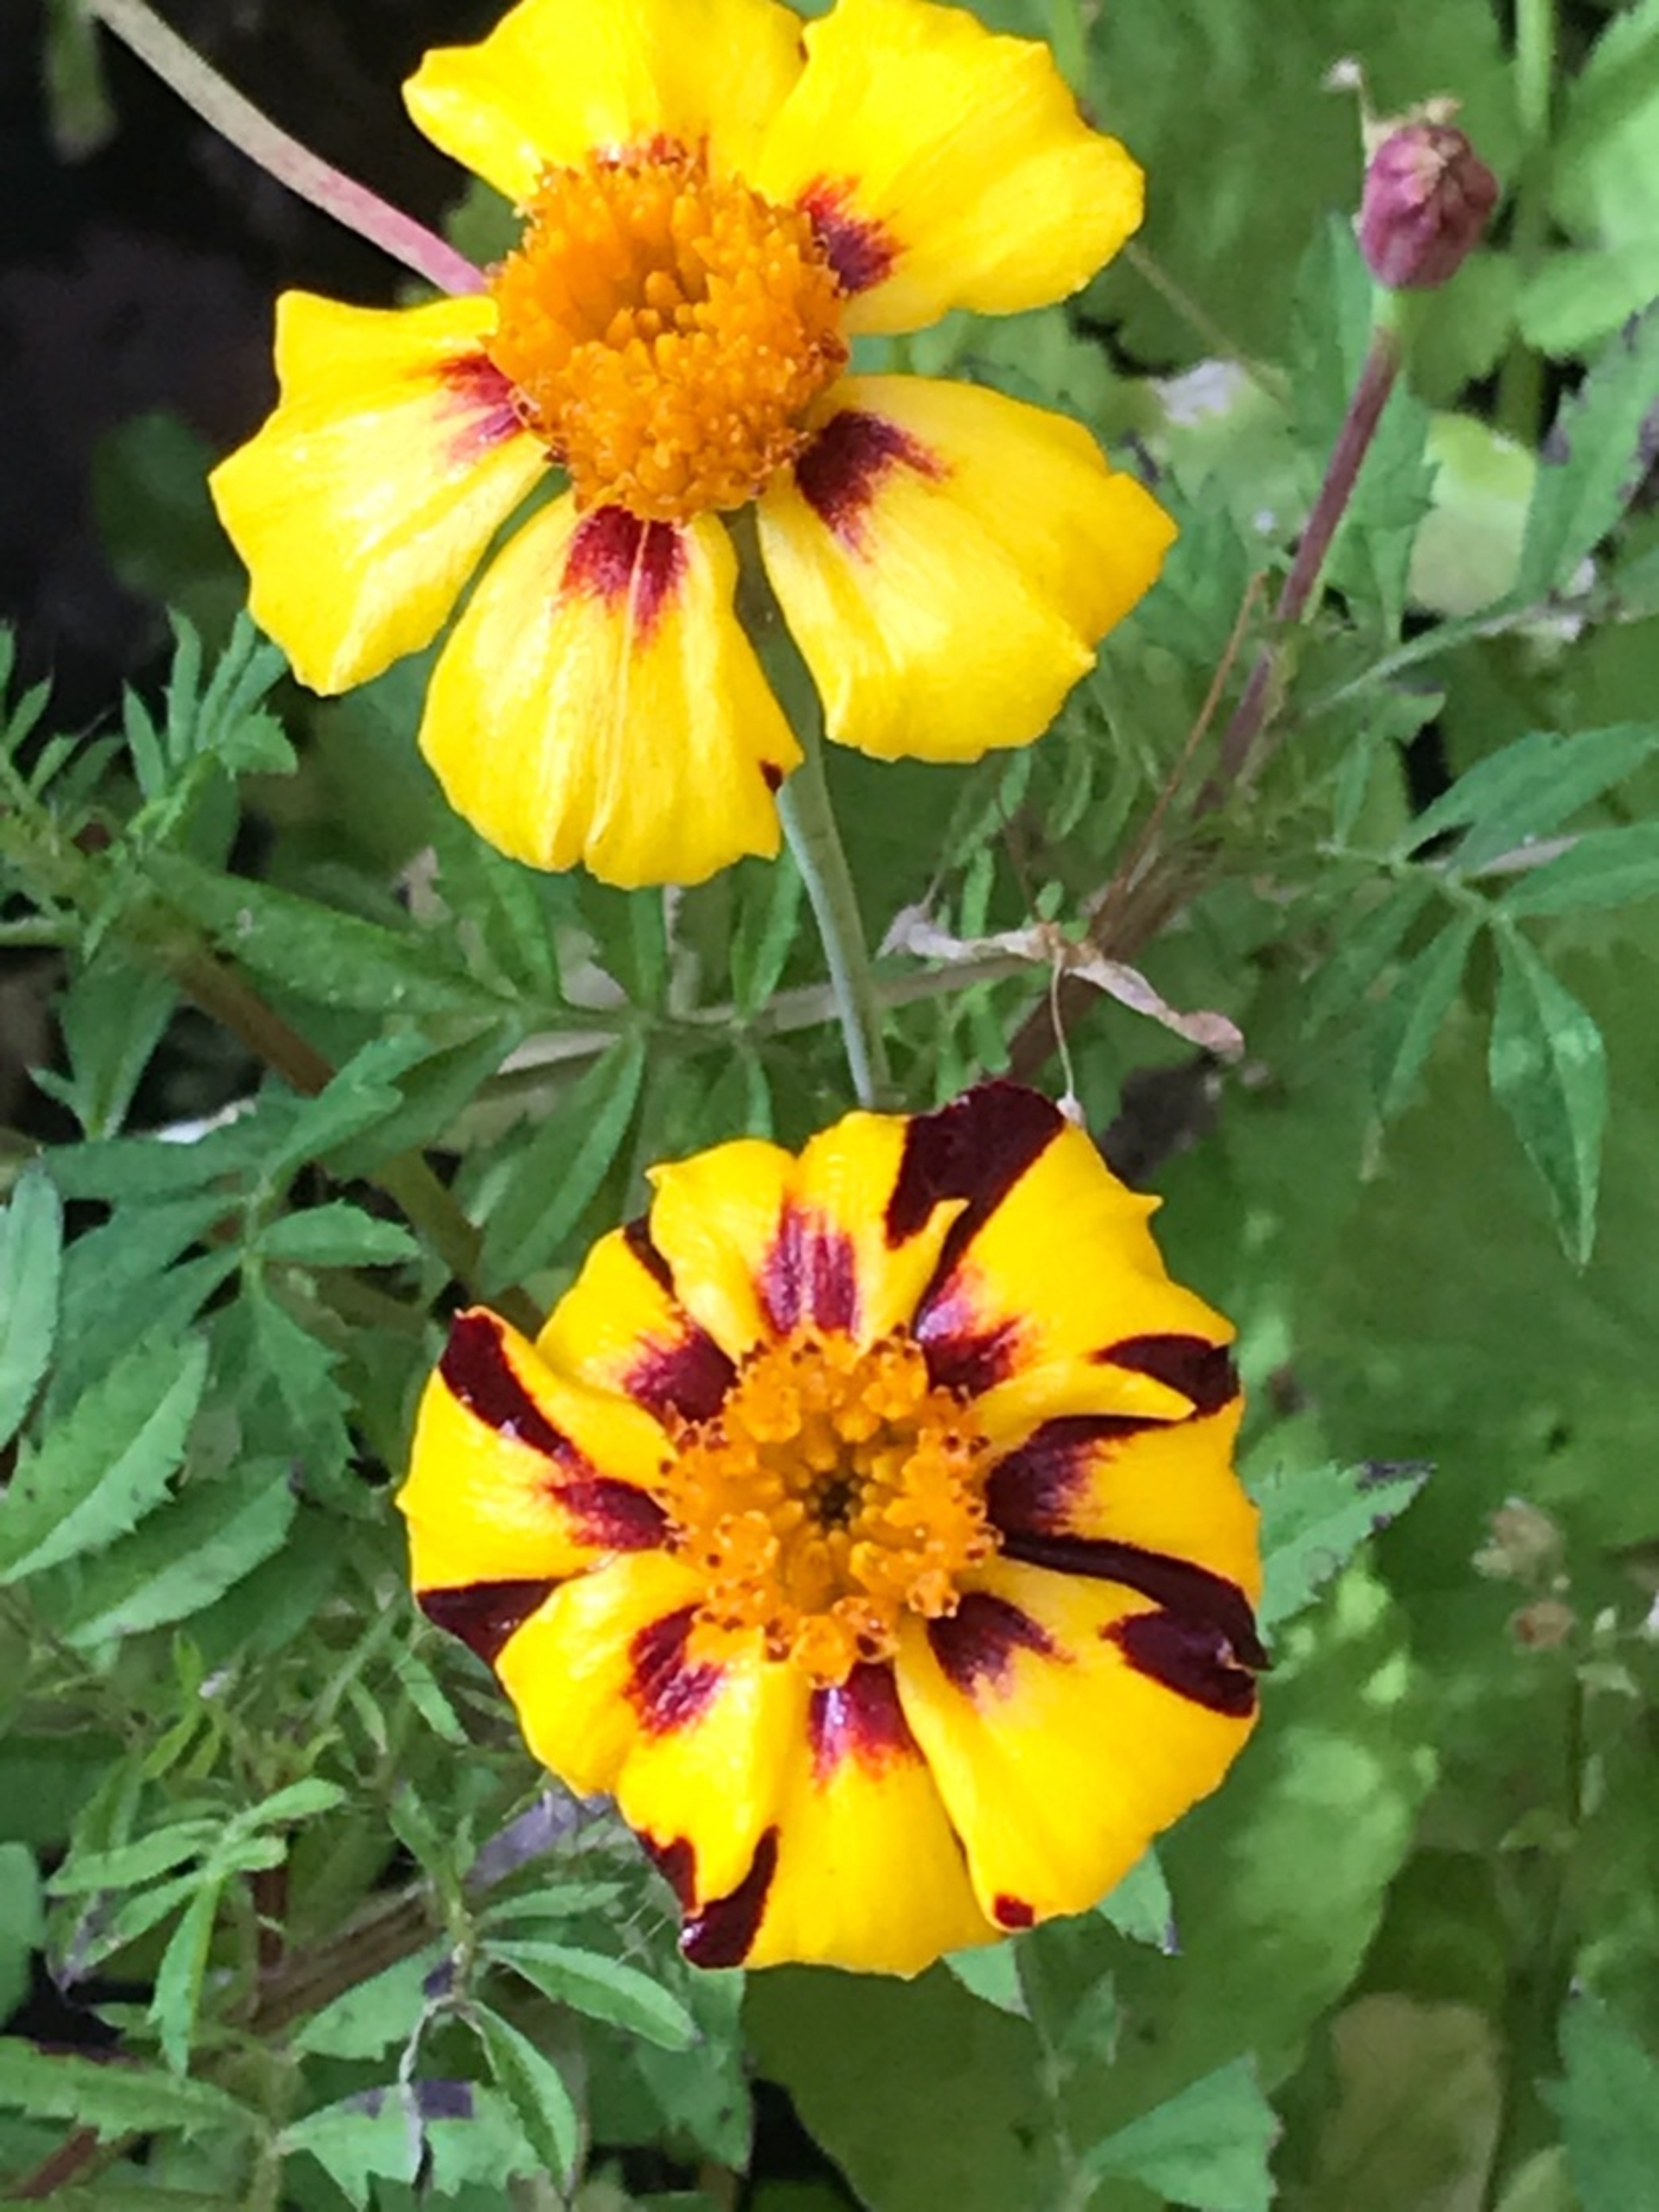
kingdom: Plantae
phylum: Tracheophyta
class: Magnoliopsida
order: Asterales
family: Asteraceae
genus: Tagetes
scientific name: Tagetes erecta
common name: Udspærret fløjlsblomst
